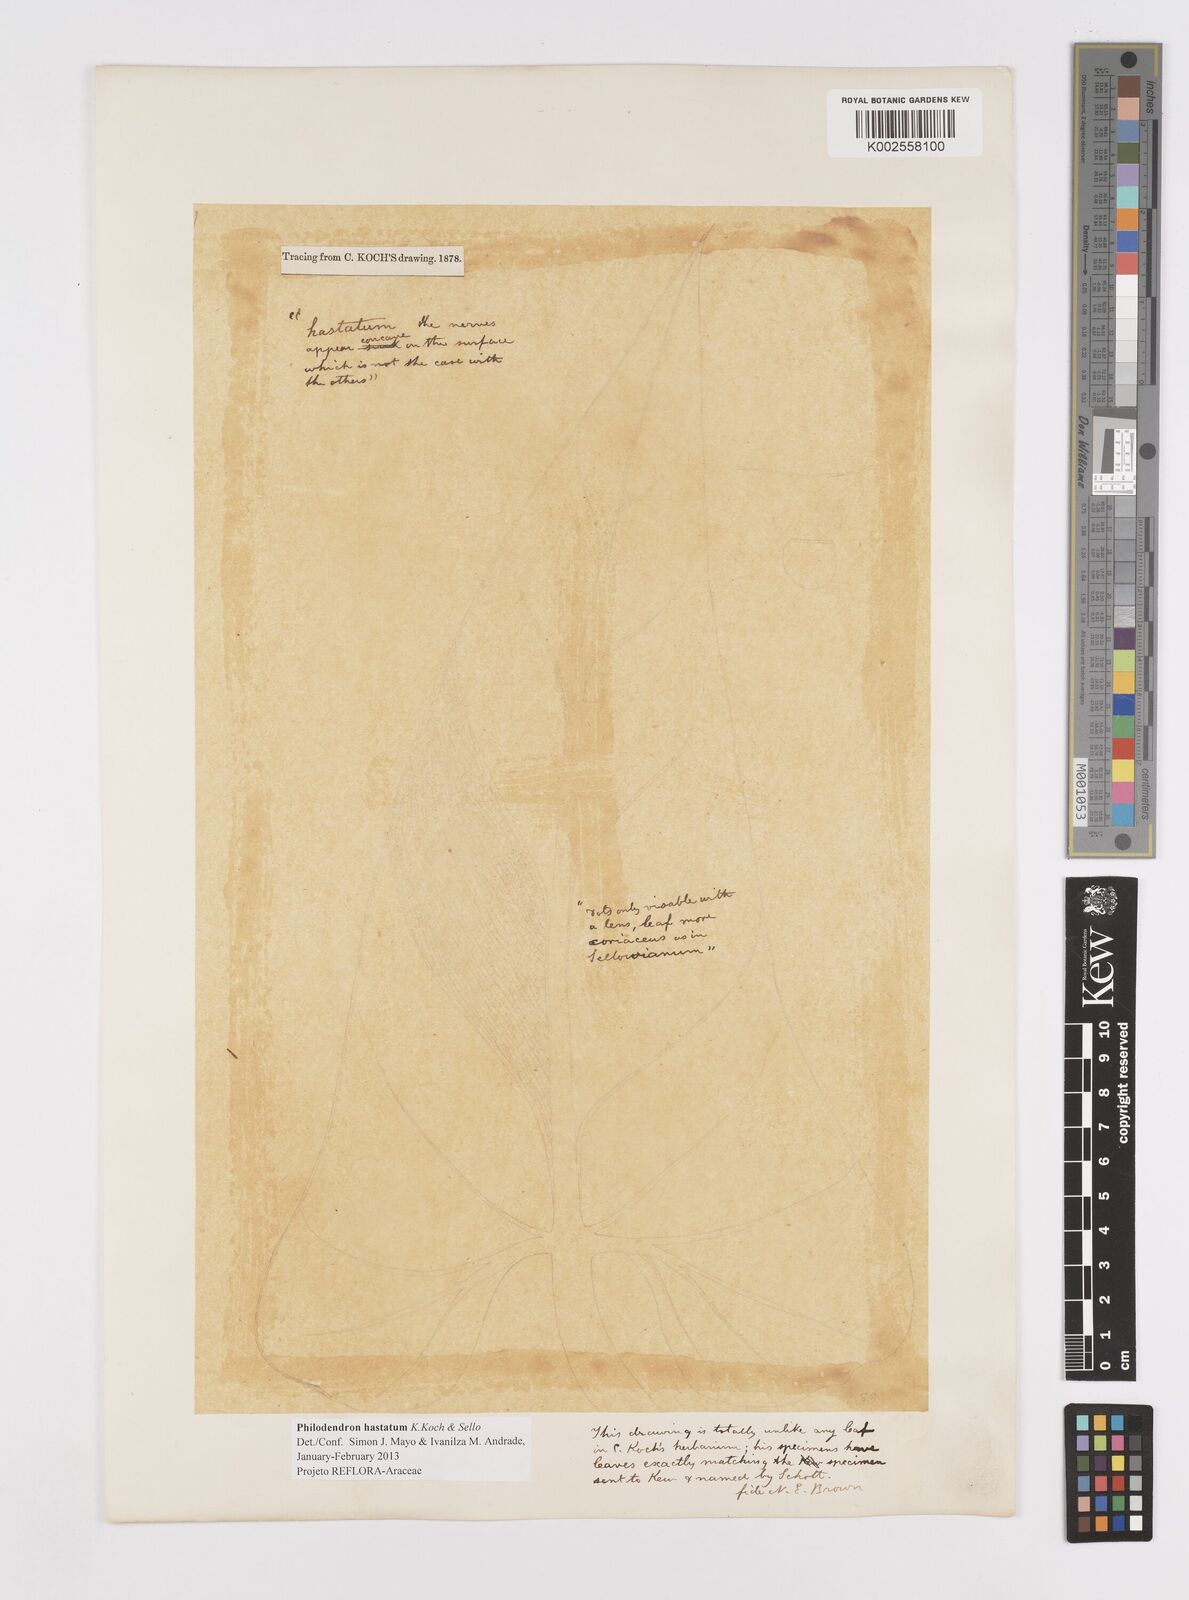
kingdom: Plantae
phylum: Tracheophyta
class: Liliopsida
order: Alismatales
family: Araceae
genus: Philodendron
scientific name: Philodendron hastatum
